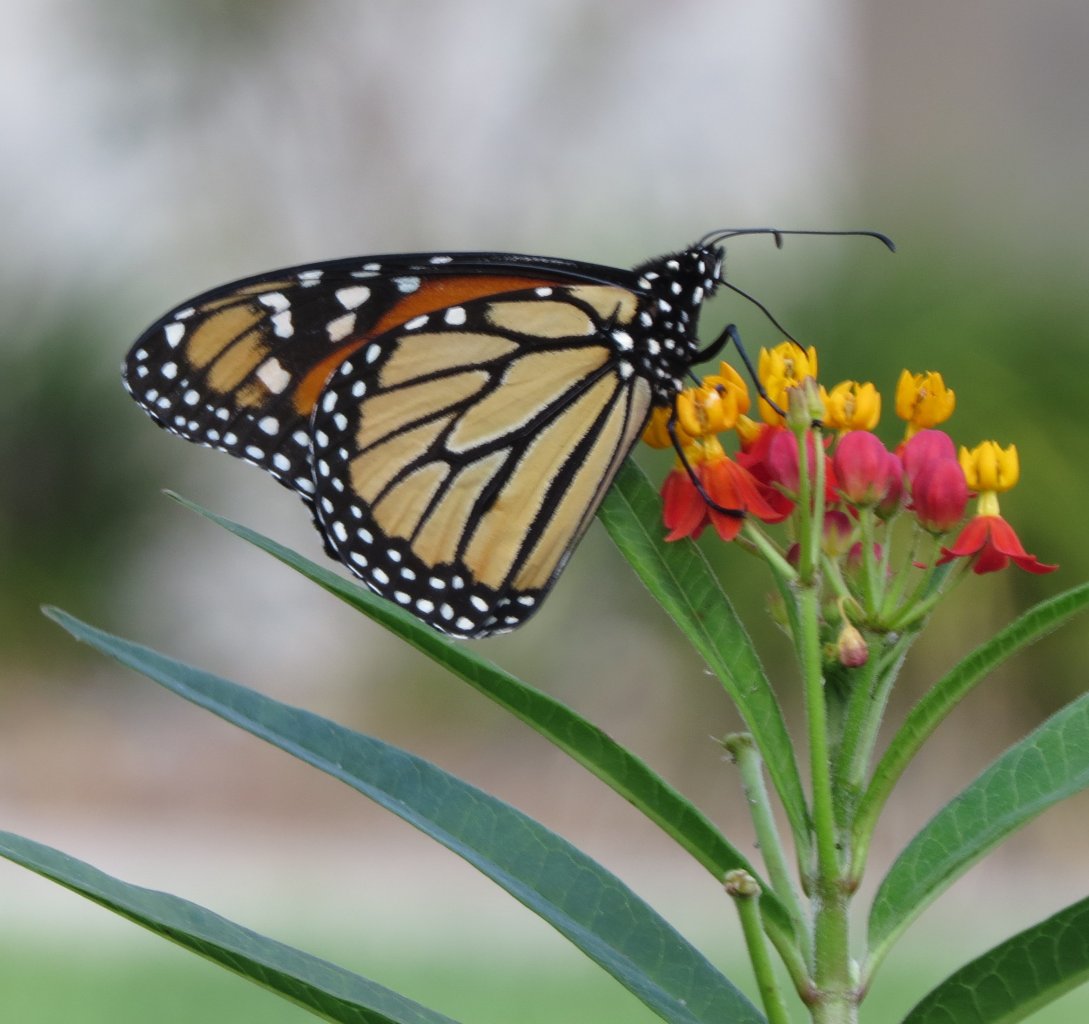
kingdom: Animalia
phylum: Arthropoda
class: Insecta
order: Lepidoptera
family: Nymphalidae
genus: Danaus
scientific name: Danaus plexippus
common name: Monarch
